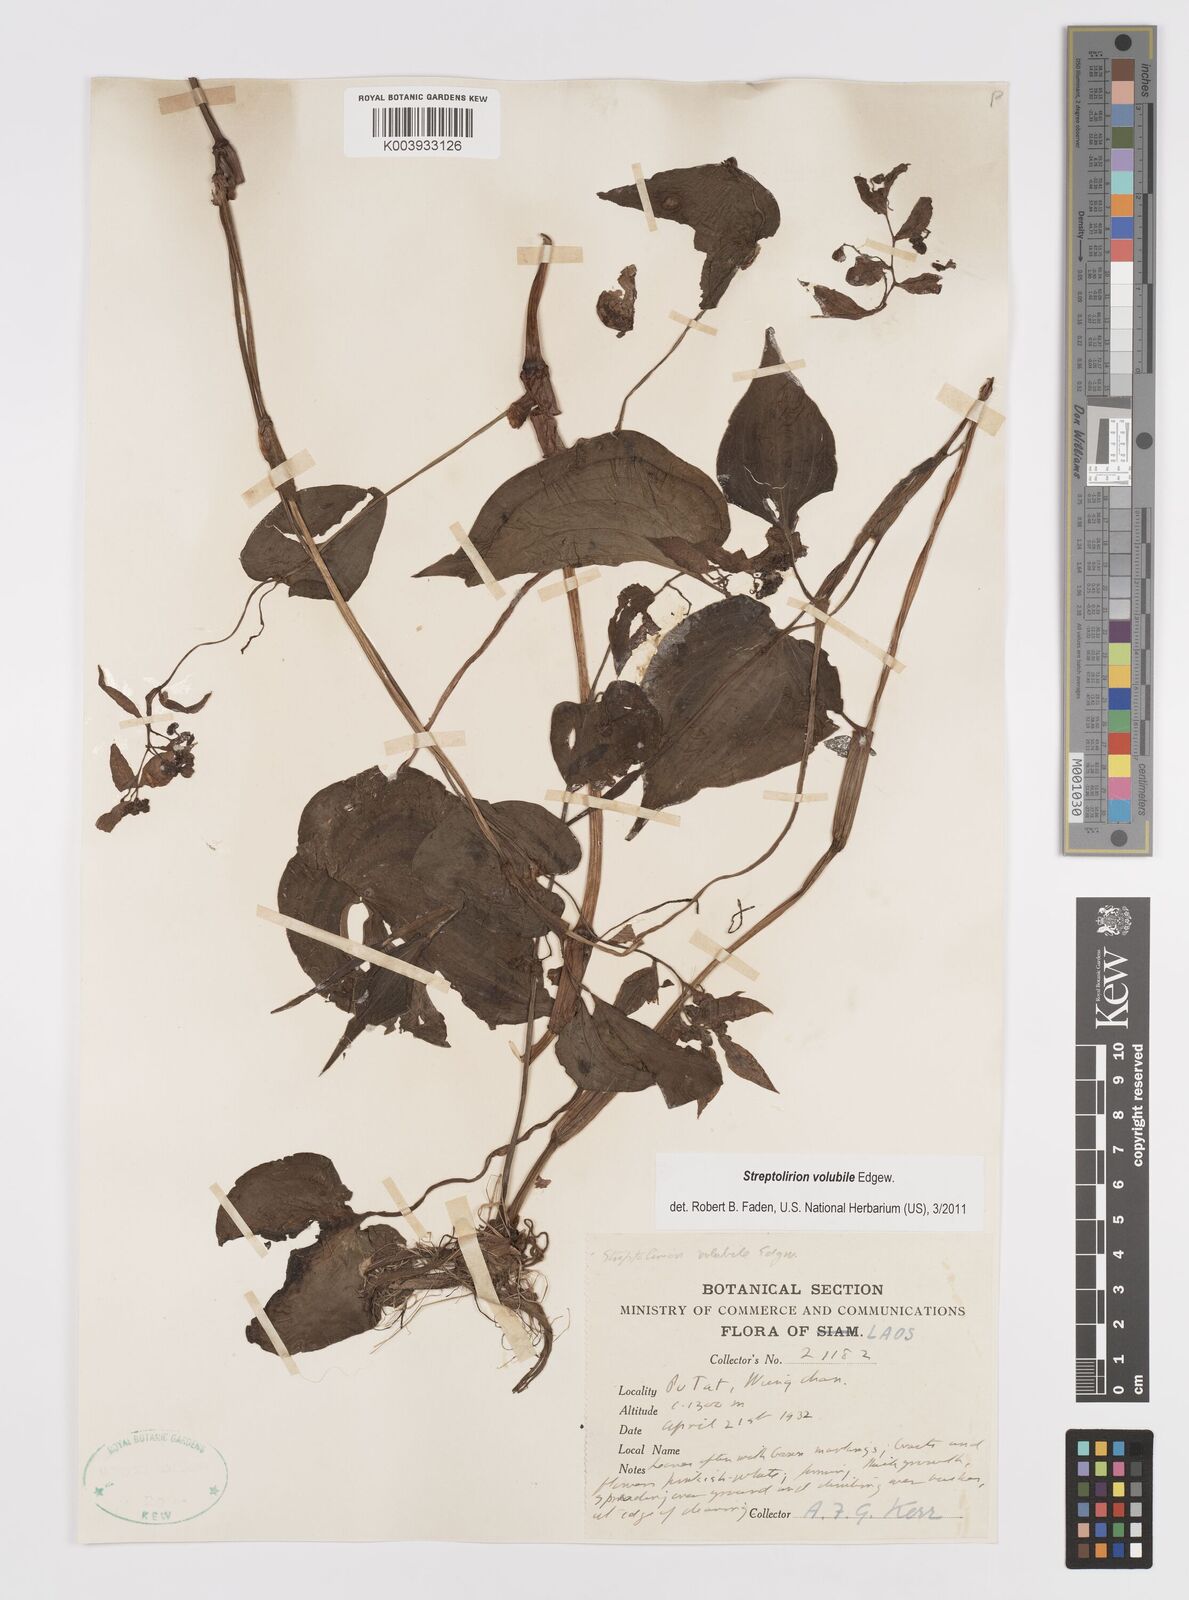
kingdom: Plantae
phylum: Tracheophyta
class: Liliopsida
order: Commelinales
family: Commelinaceae
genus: Streptolirion
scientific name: Streptolirion volubile
